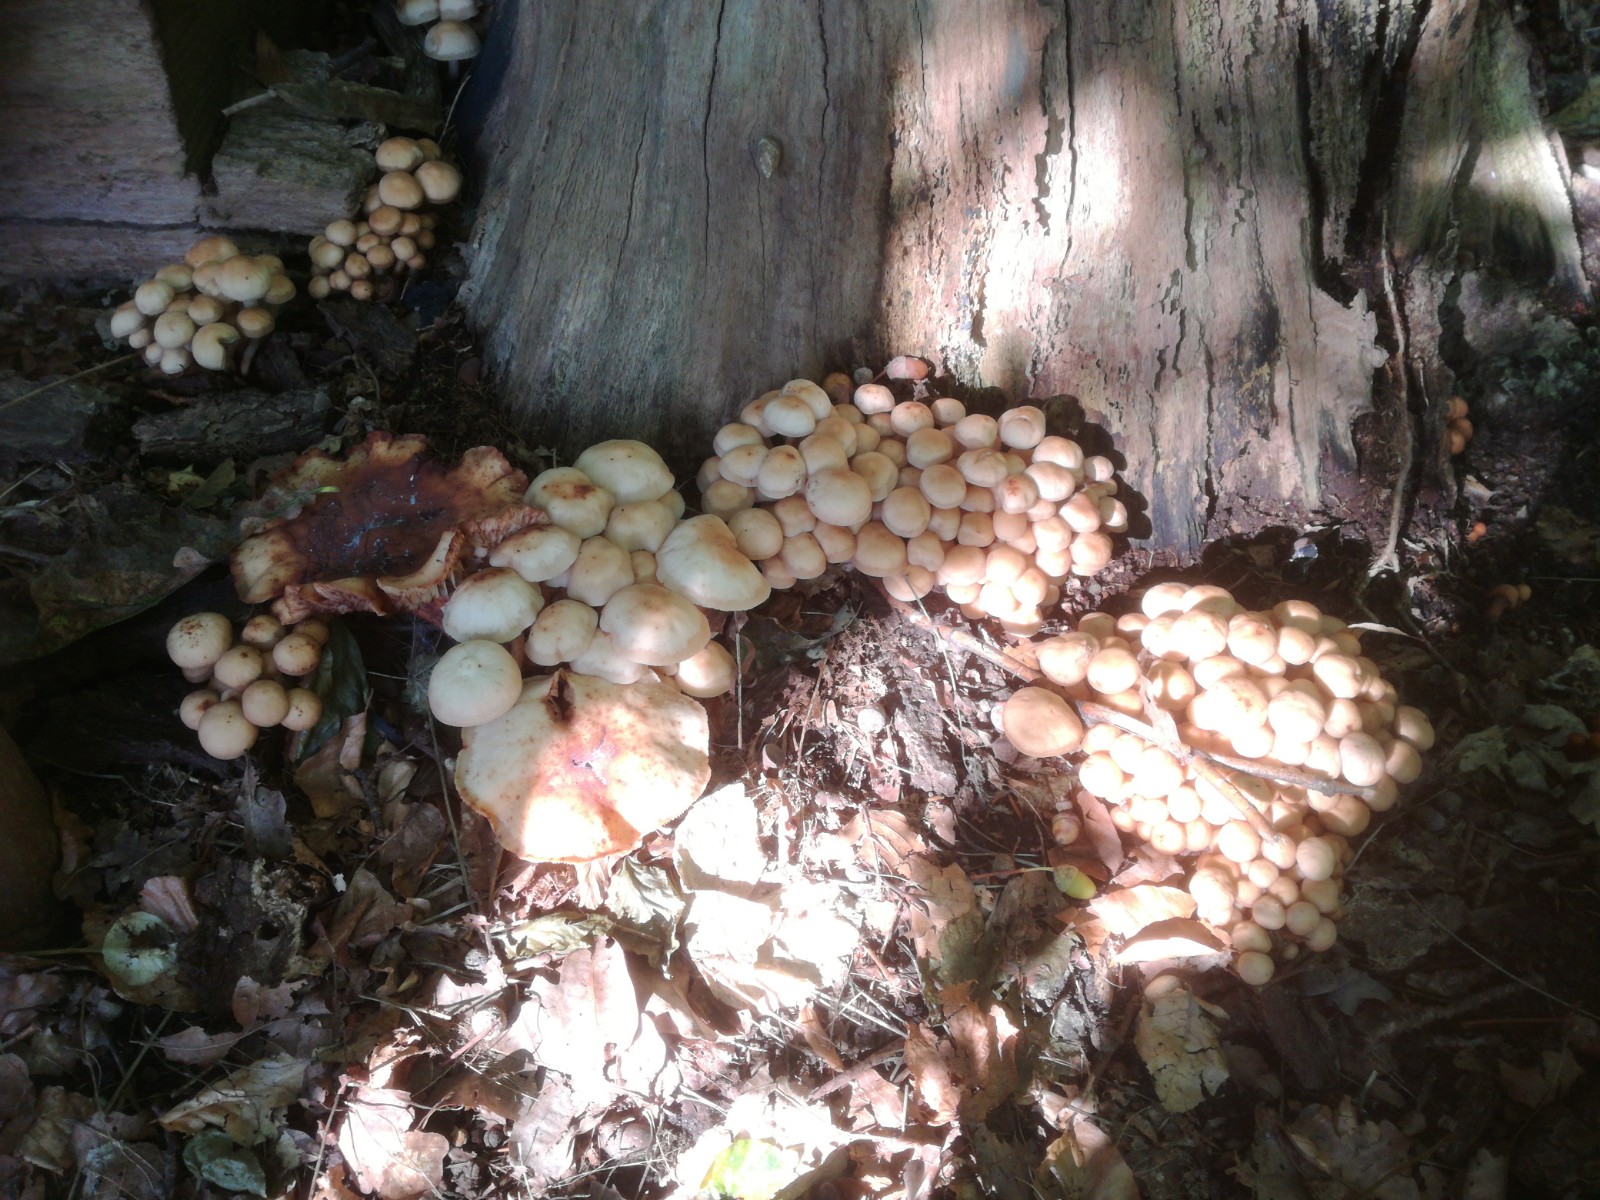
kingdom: Fungi
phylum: Basidiomycota
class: Agaricomycetes
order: Agaricales
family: Omphalotaceae
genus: Gymnopus
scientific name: Gymnopus fusipes
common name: tenstokket fladhat
